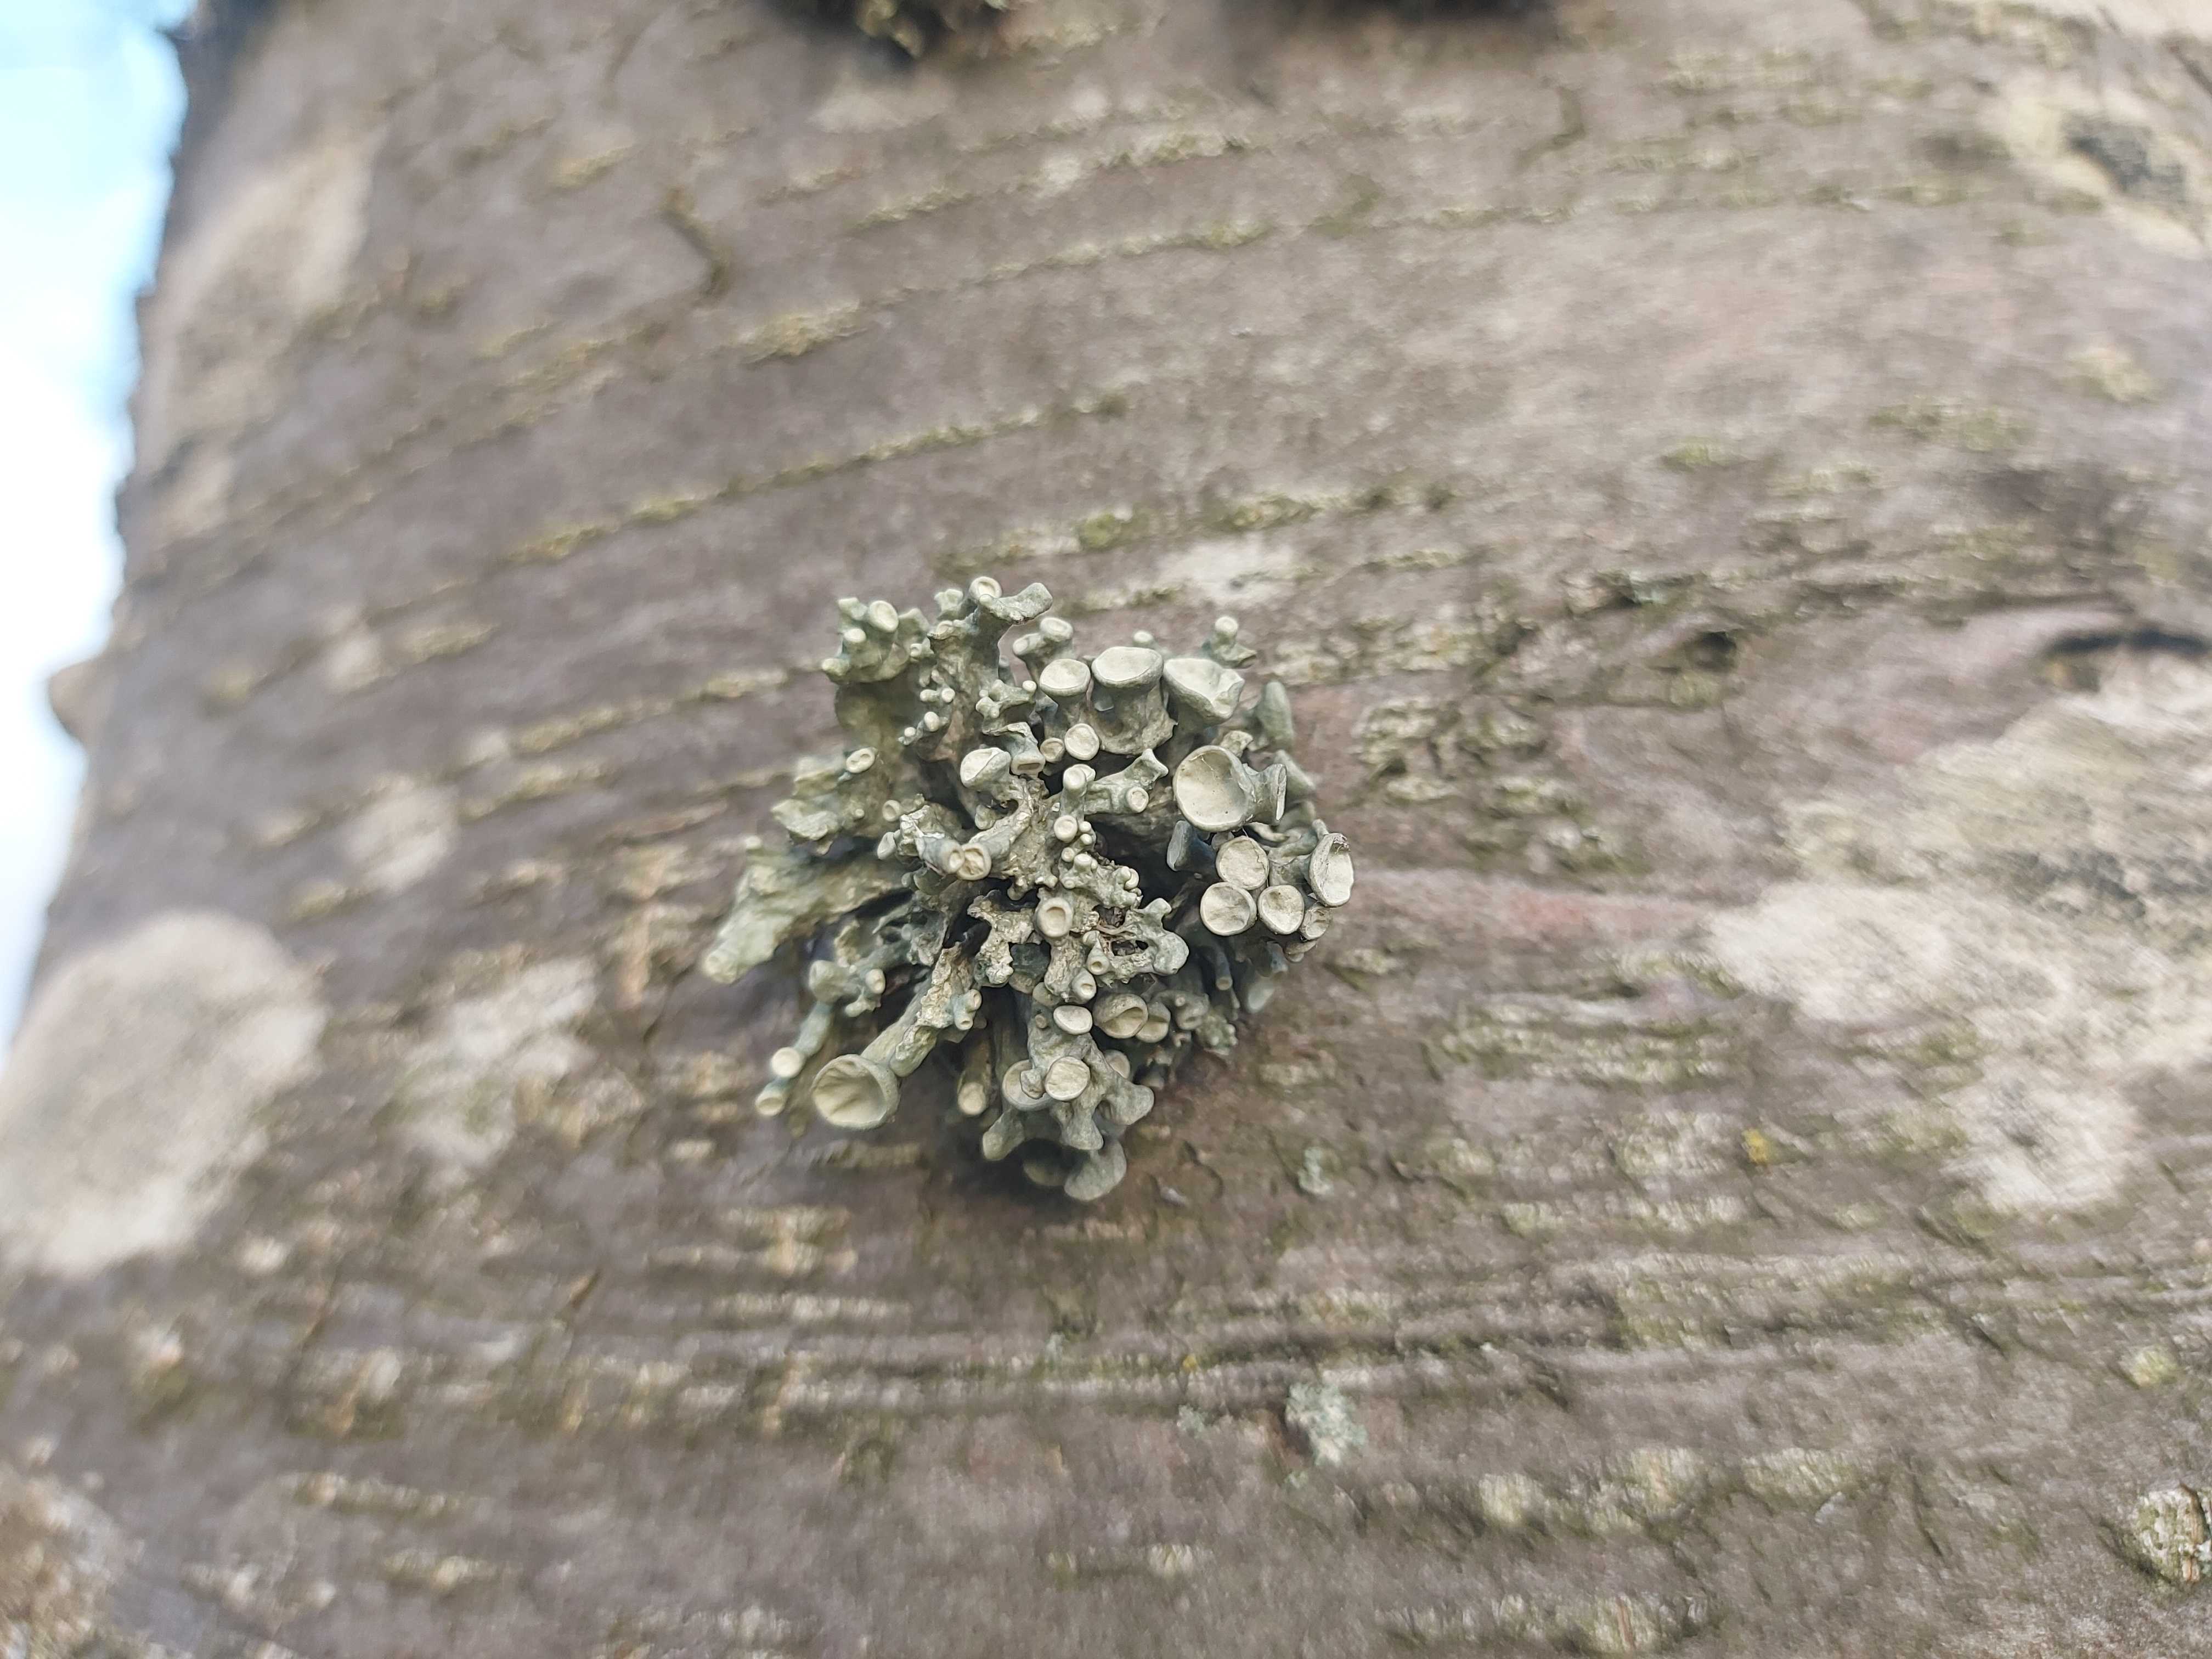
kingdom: Fungi
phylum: Ascomycota
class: Lecanoromycetes
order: Lecanorales
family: Ramalinaceae
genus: Ramalina
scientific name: Ramalina fastigiata
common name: tue-grenlav
